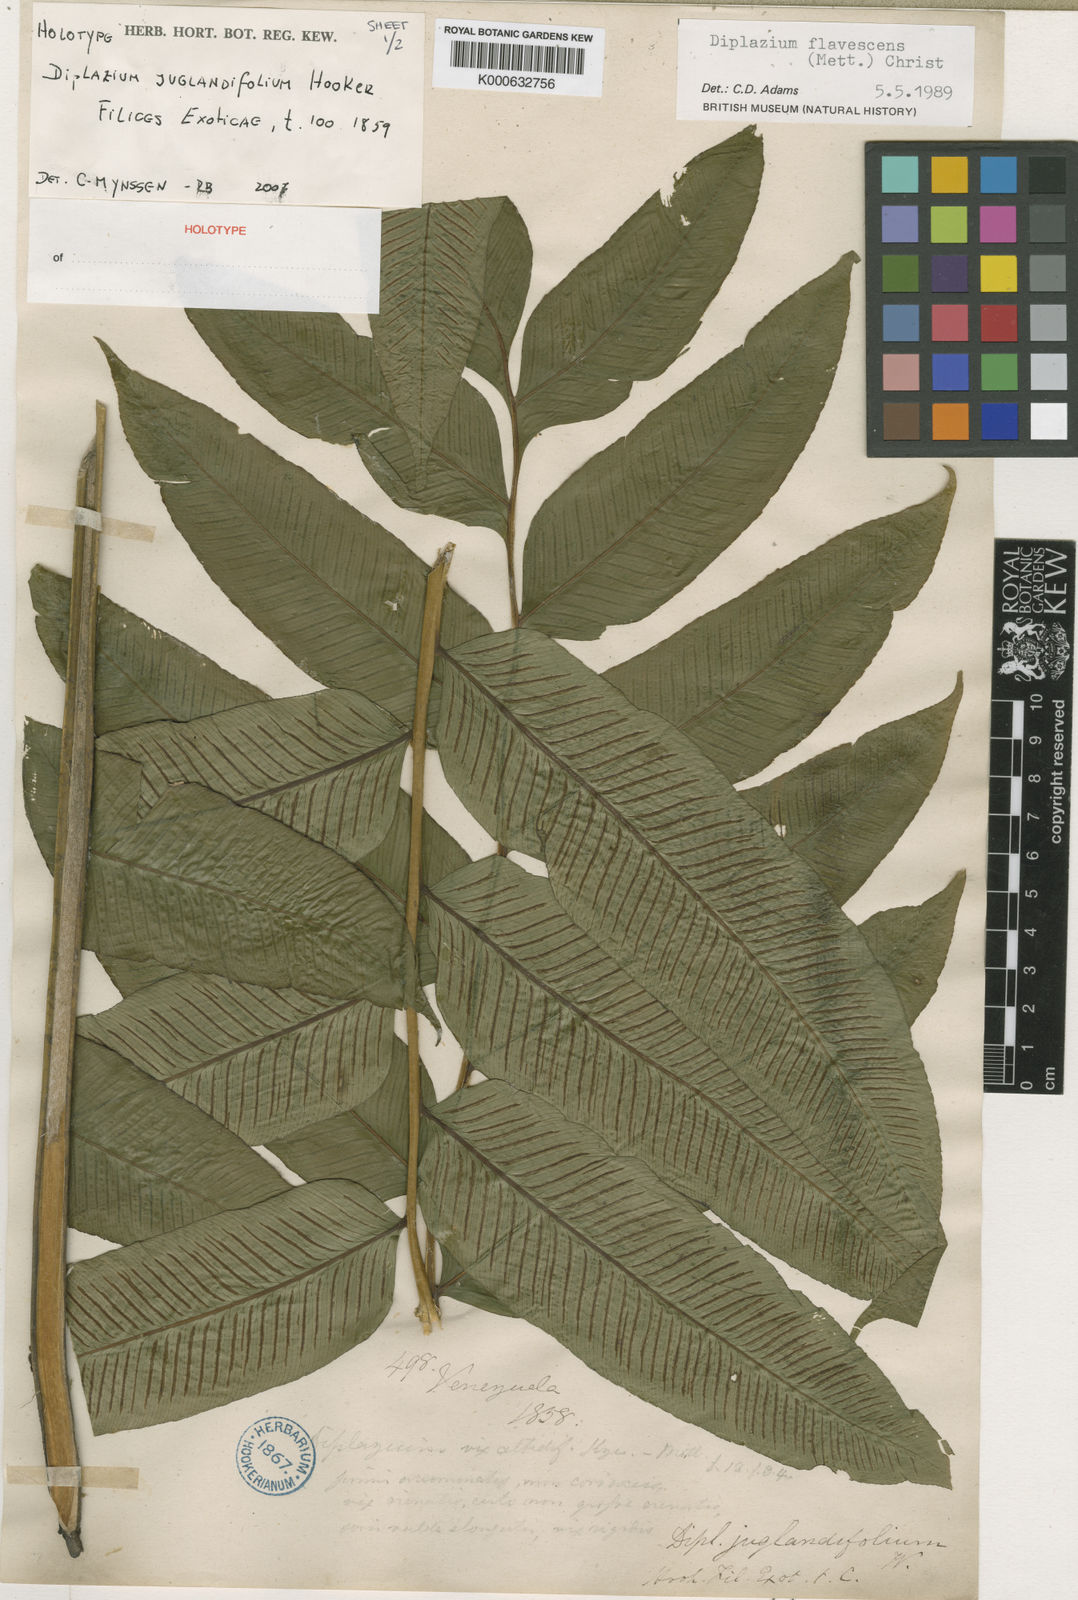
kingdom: Plantae
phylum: Tracheophyta
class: Polypodiopsida
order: Polypodiales
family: Athyriaceae
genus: Diplazium
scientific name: Diplazium alienum
